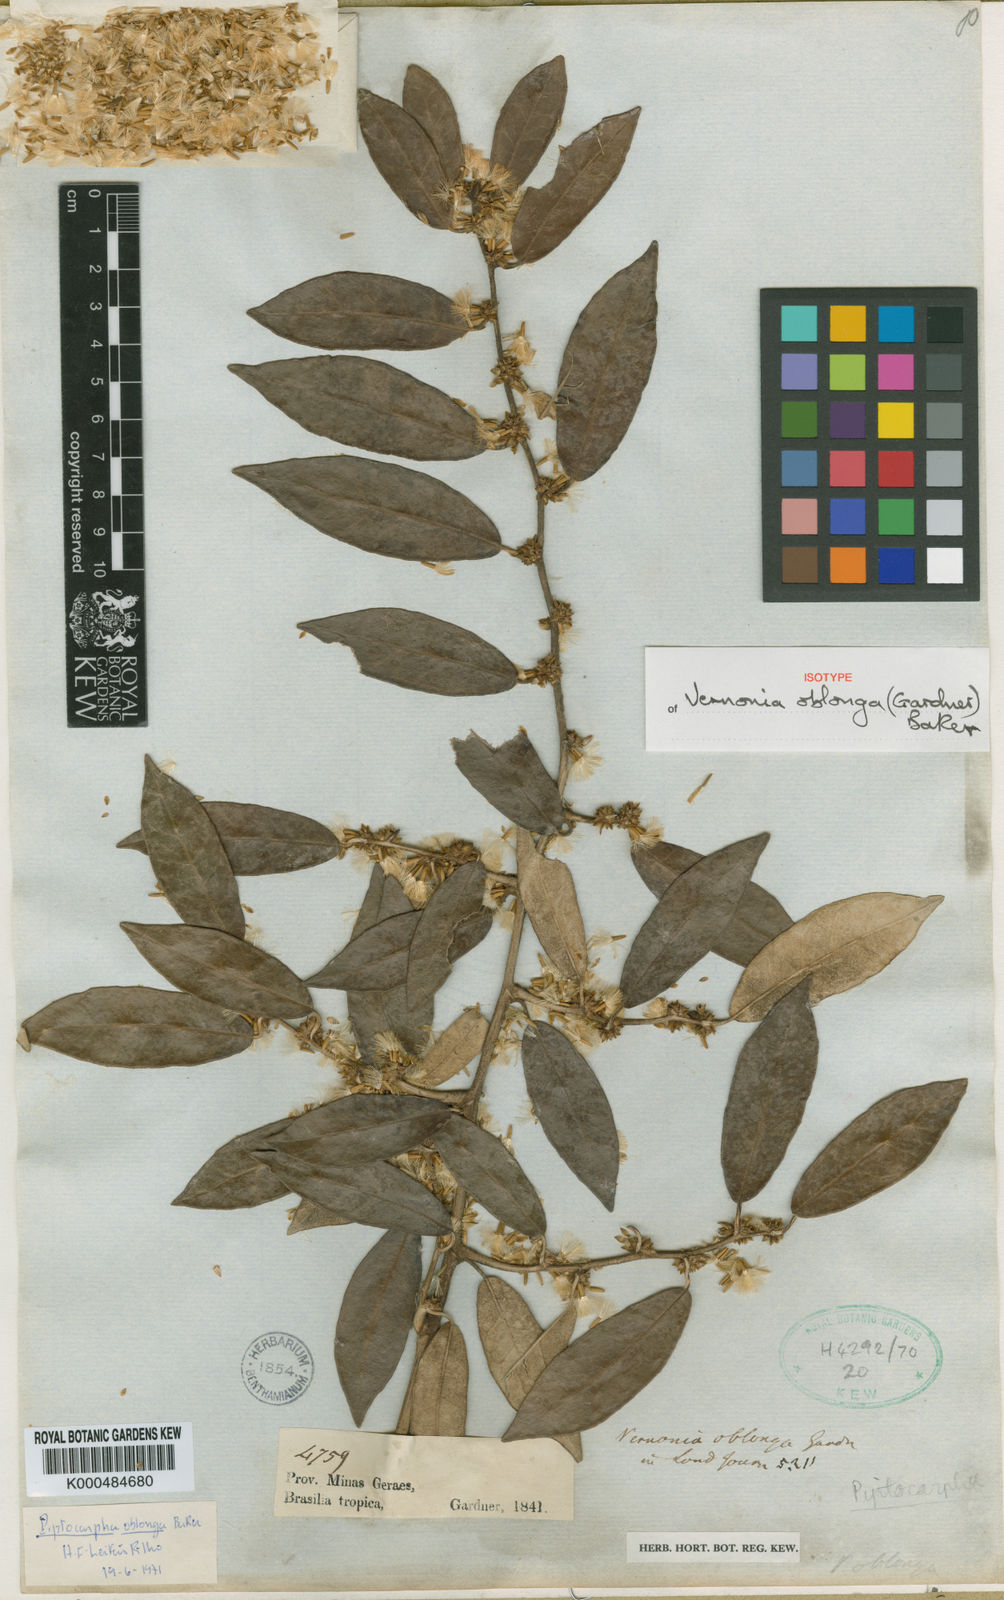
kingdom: Plantae
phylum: Tracheophyta
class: Magnoliopsida
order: Asterales
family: Asteraceae
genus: Piptocarpha
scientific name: Piptocarpha oblonga
